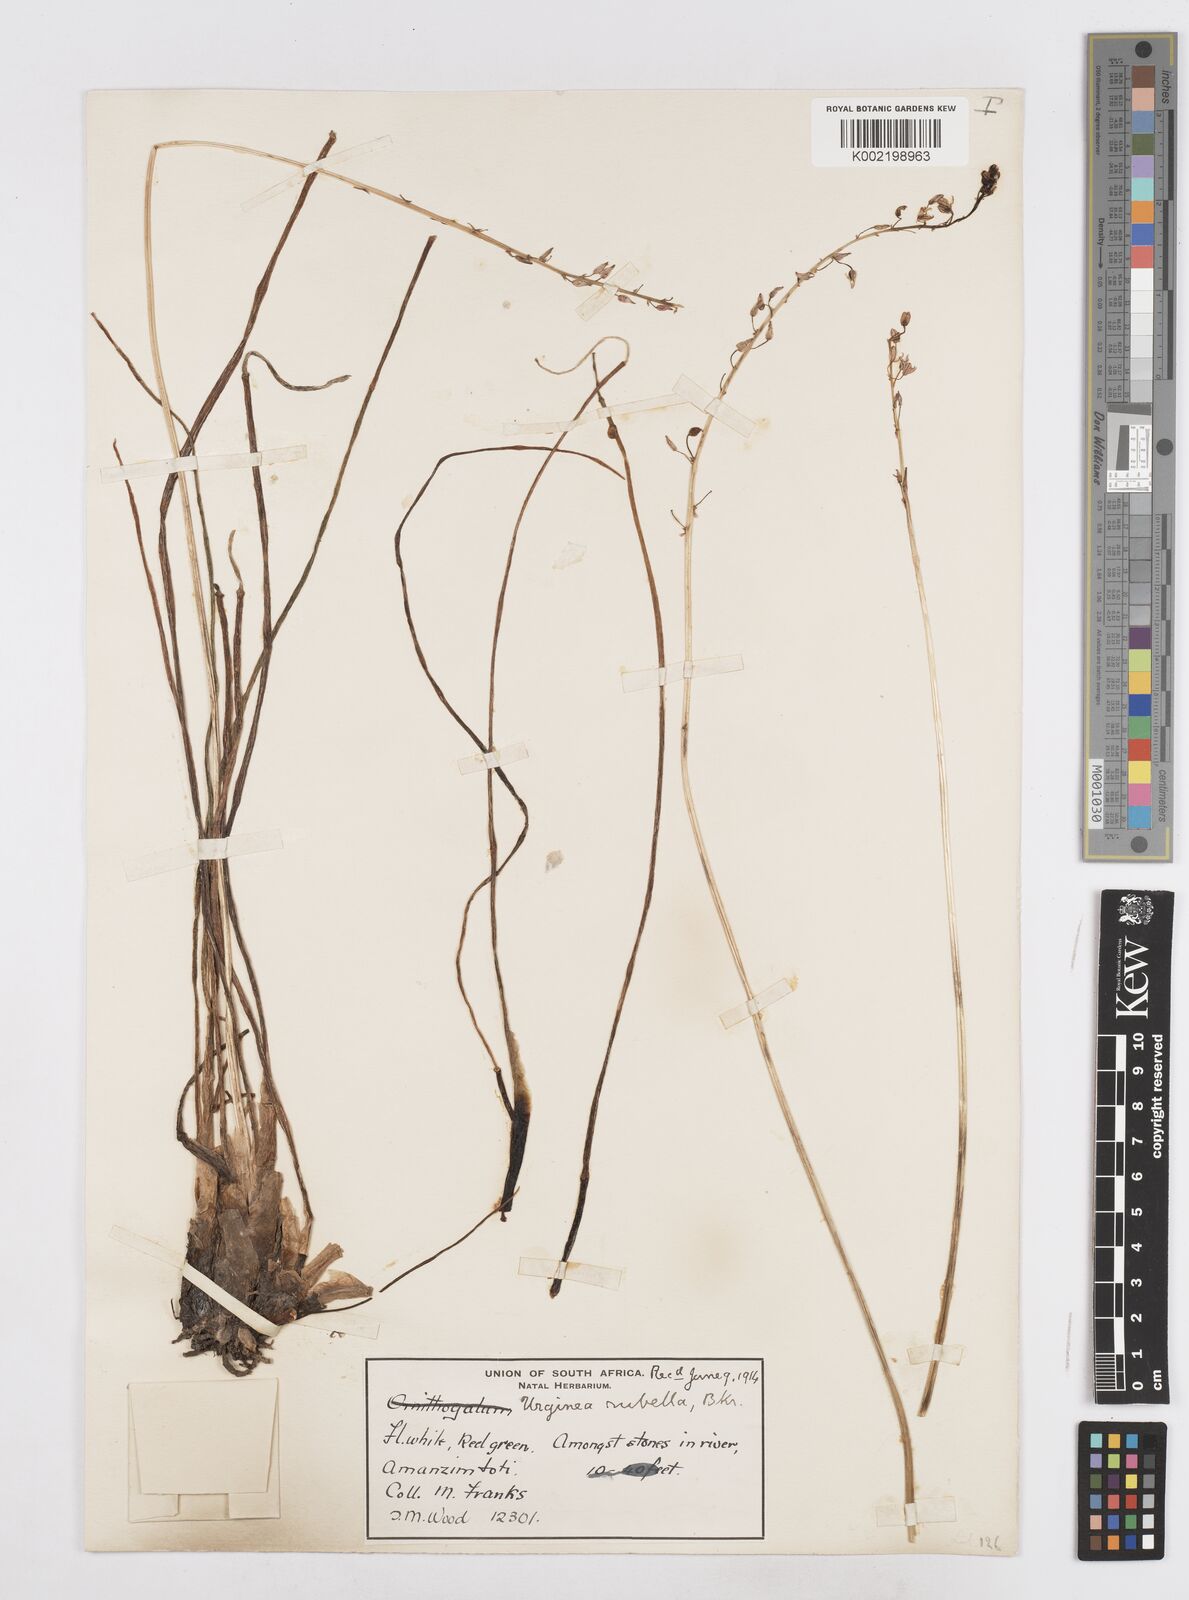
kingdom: Plantae
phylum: Tracheophyta
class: Liliopsida
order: Asparagales
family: Asparagaceae
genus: Drimia
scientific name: Drimia
